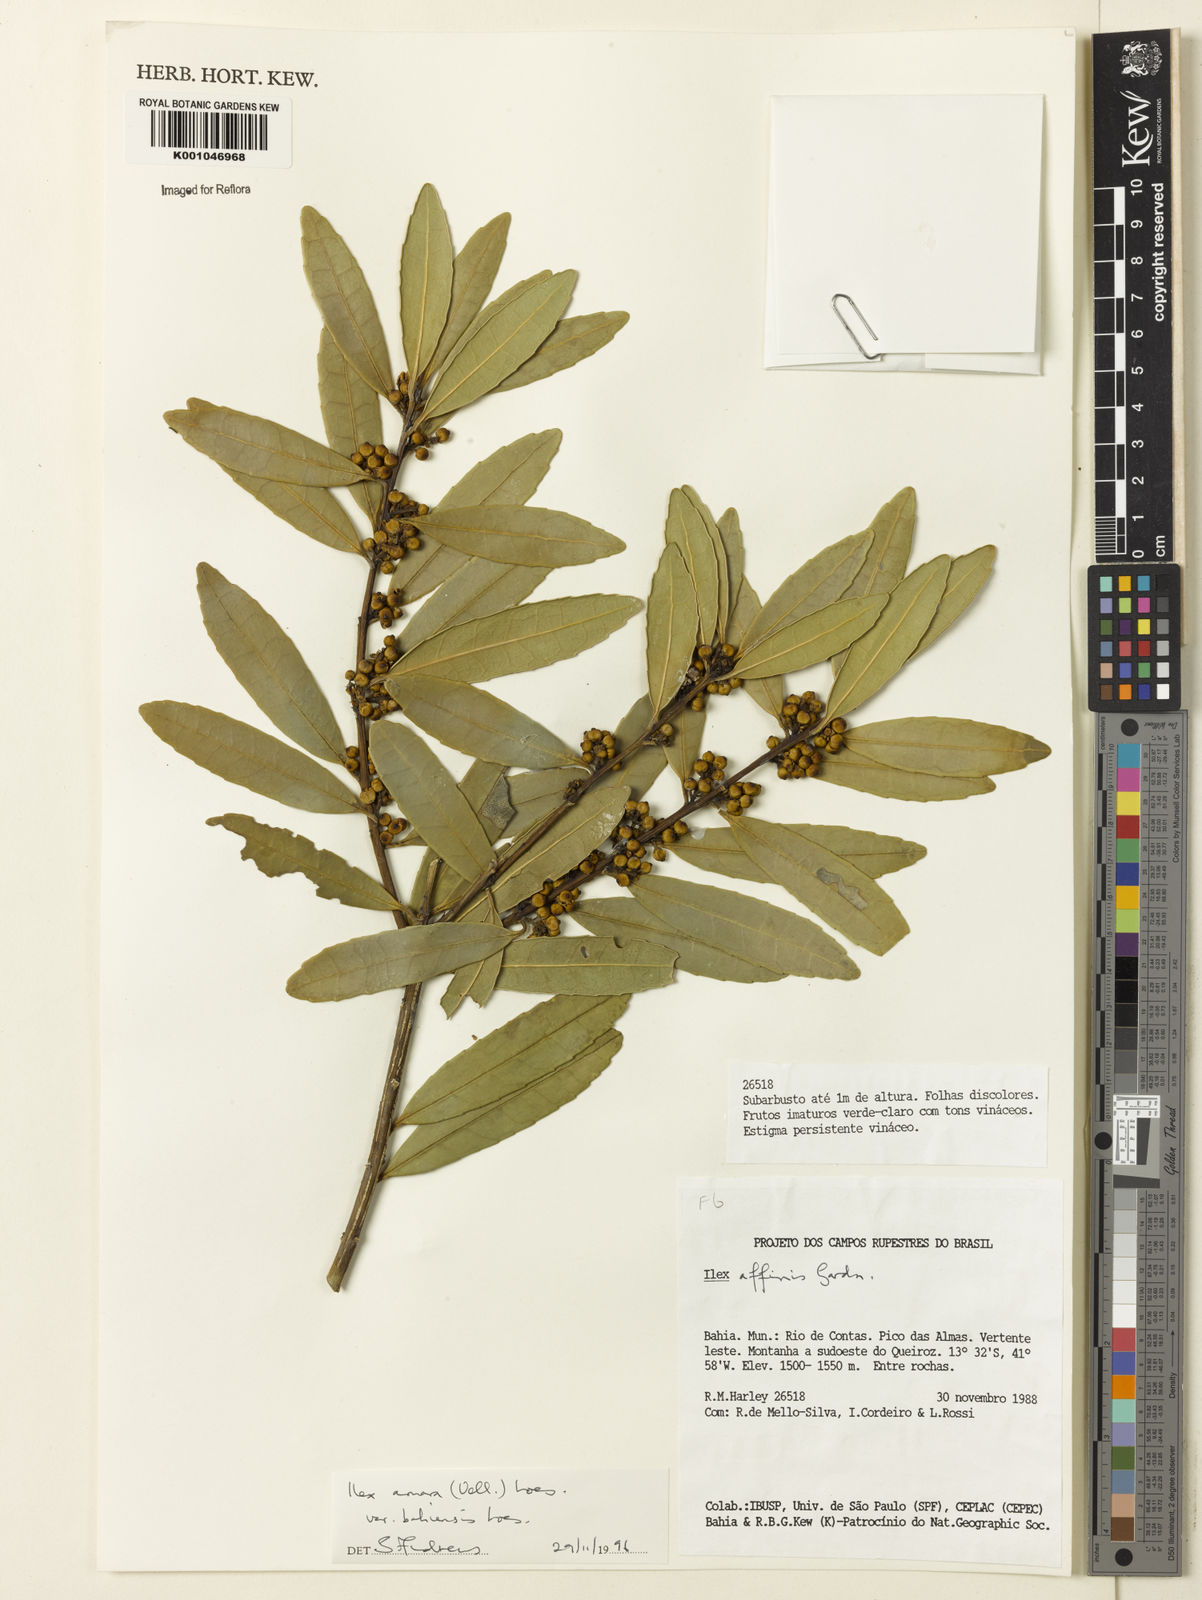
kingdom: Plantae
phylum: Tracheophyta
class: Magnoliopsida
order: Aquifoliales
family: Aquifoliaceae
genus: Ilex
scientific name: Ilex dumosa
